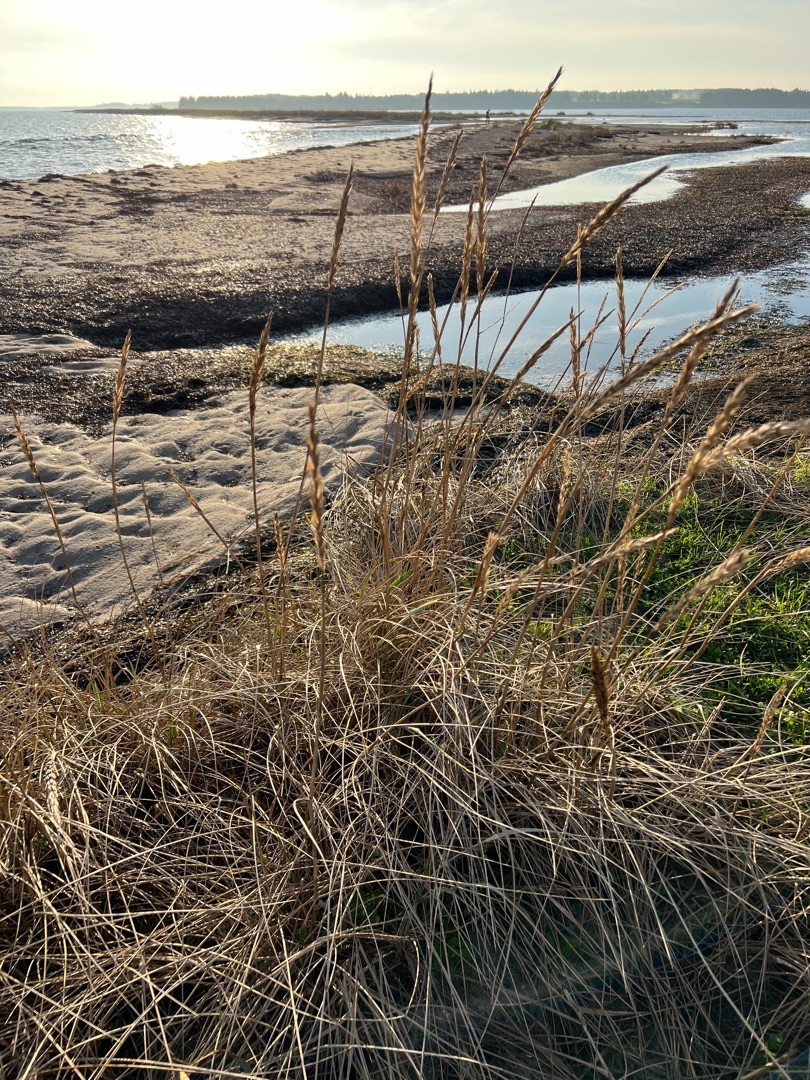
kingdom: Plantae
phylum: Tracheophyta
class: Liliopsida
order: Poales
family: Poaceae
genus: Leymus
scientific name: Leymus arenarius
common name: Marehalm
